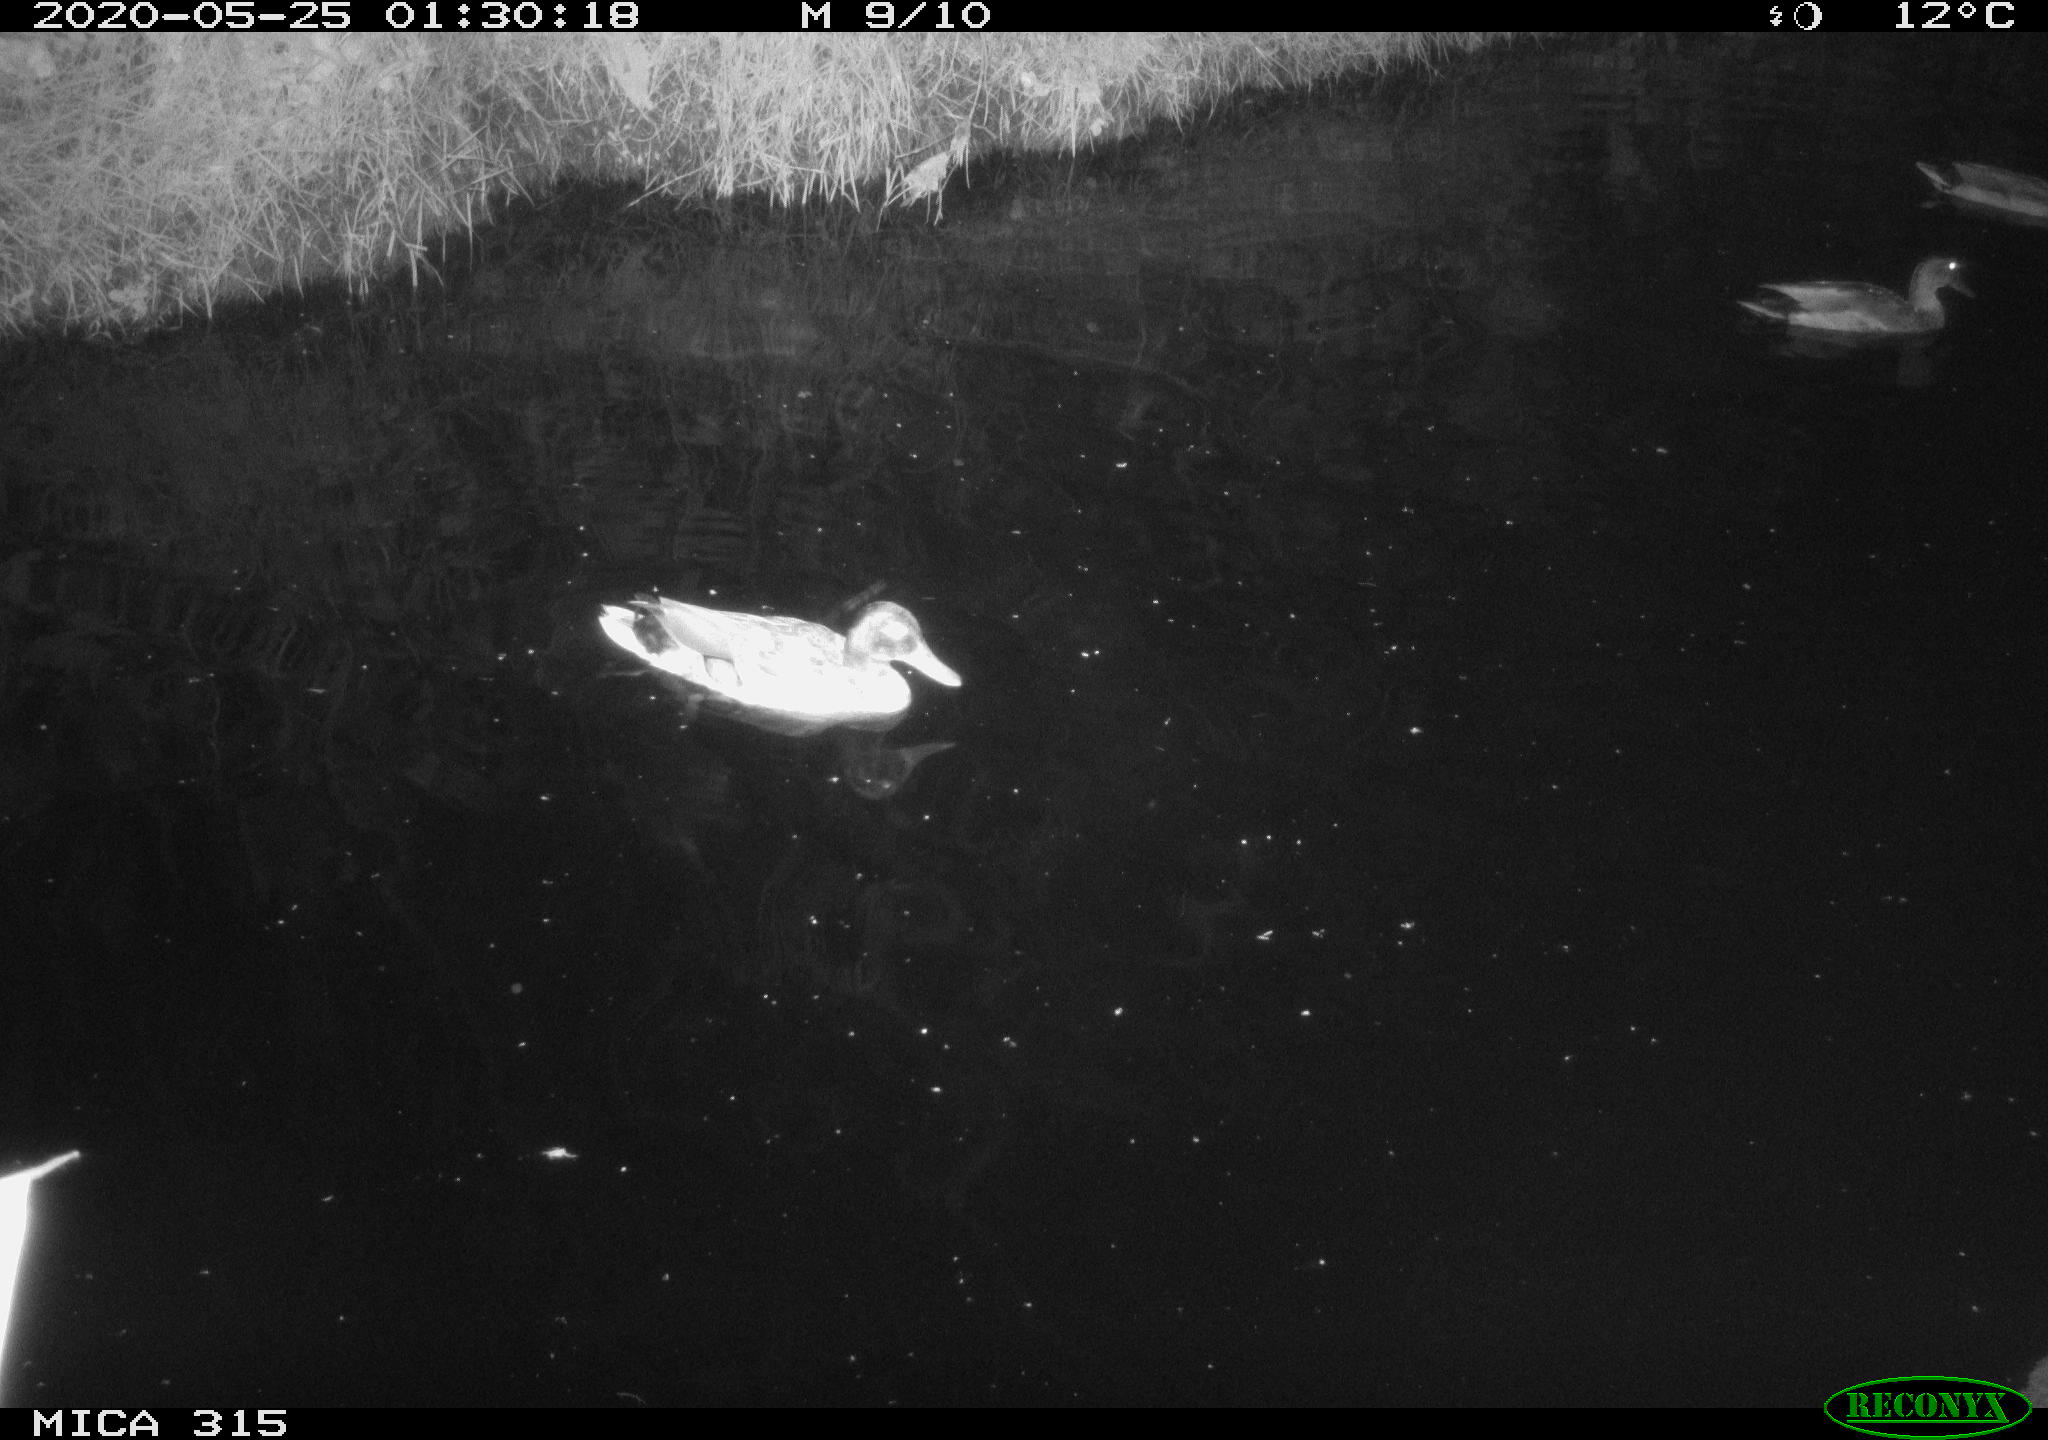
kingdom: Animalia
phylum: Chordata
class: Aves
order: Anseriformes
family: Anatidae
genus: Anas
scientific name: Anas platyrhynchos
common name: Mallard
